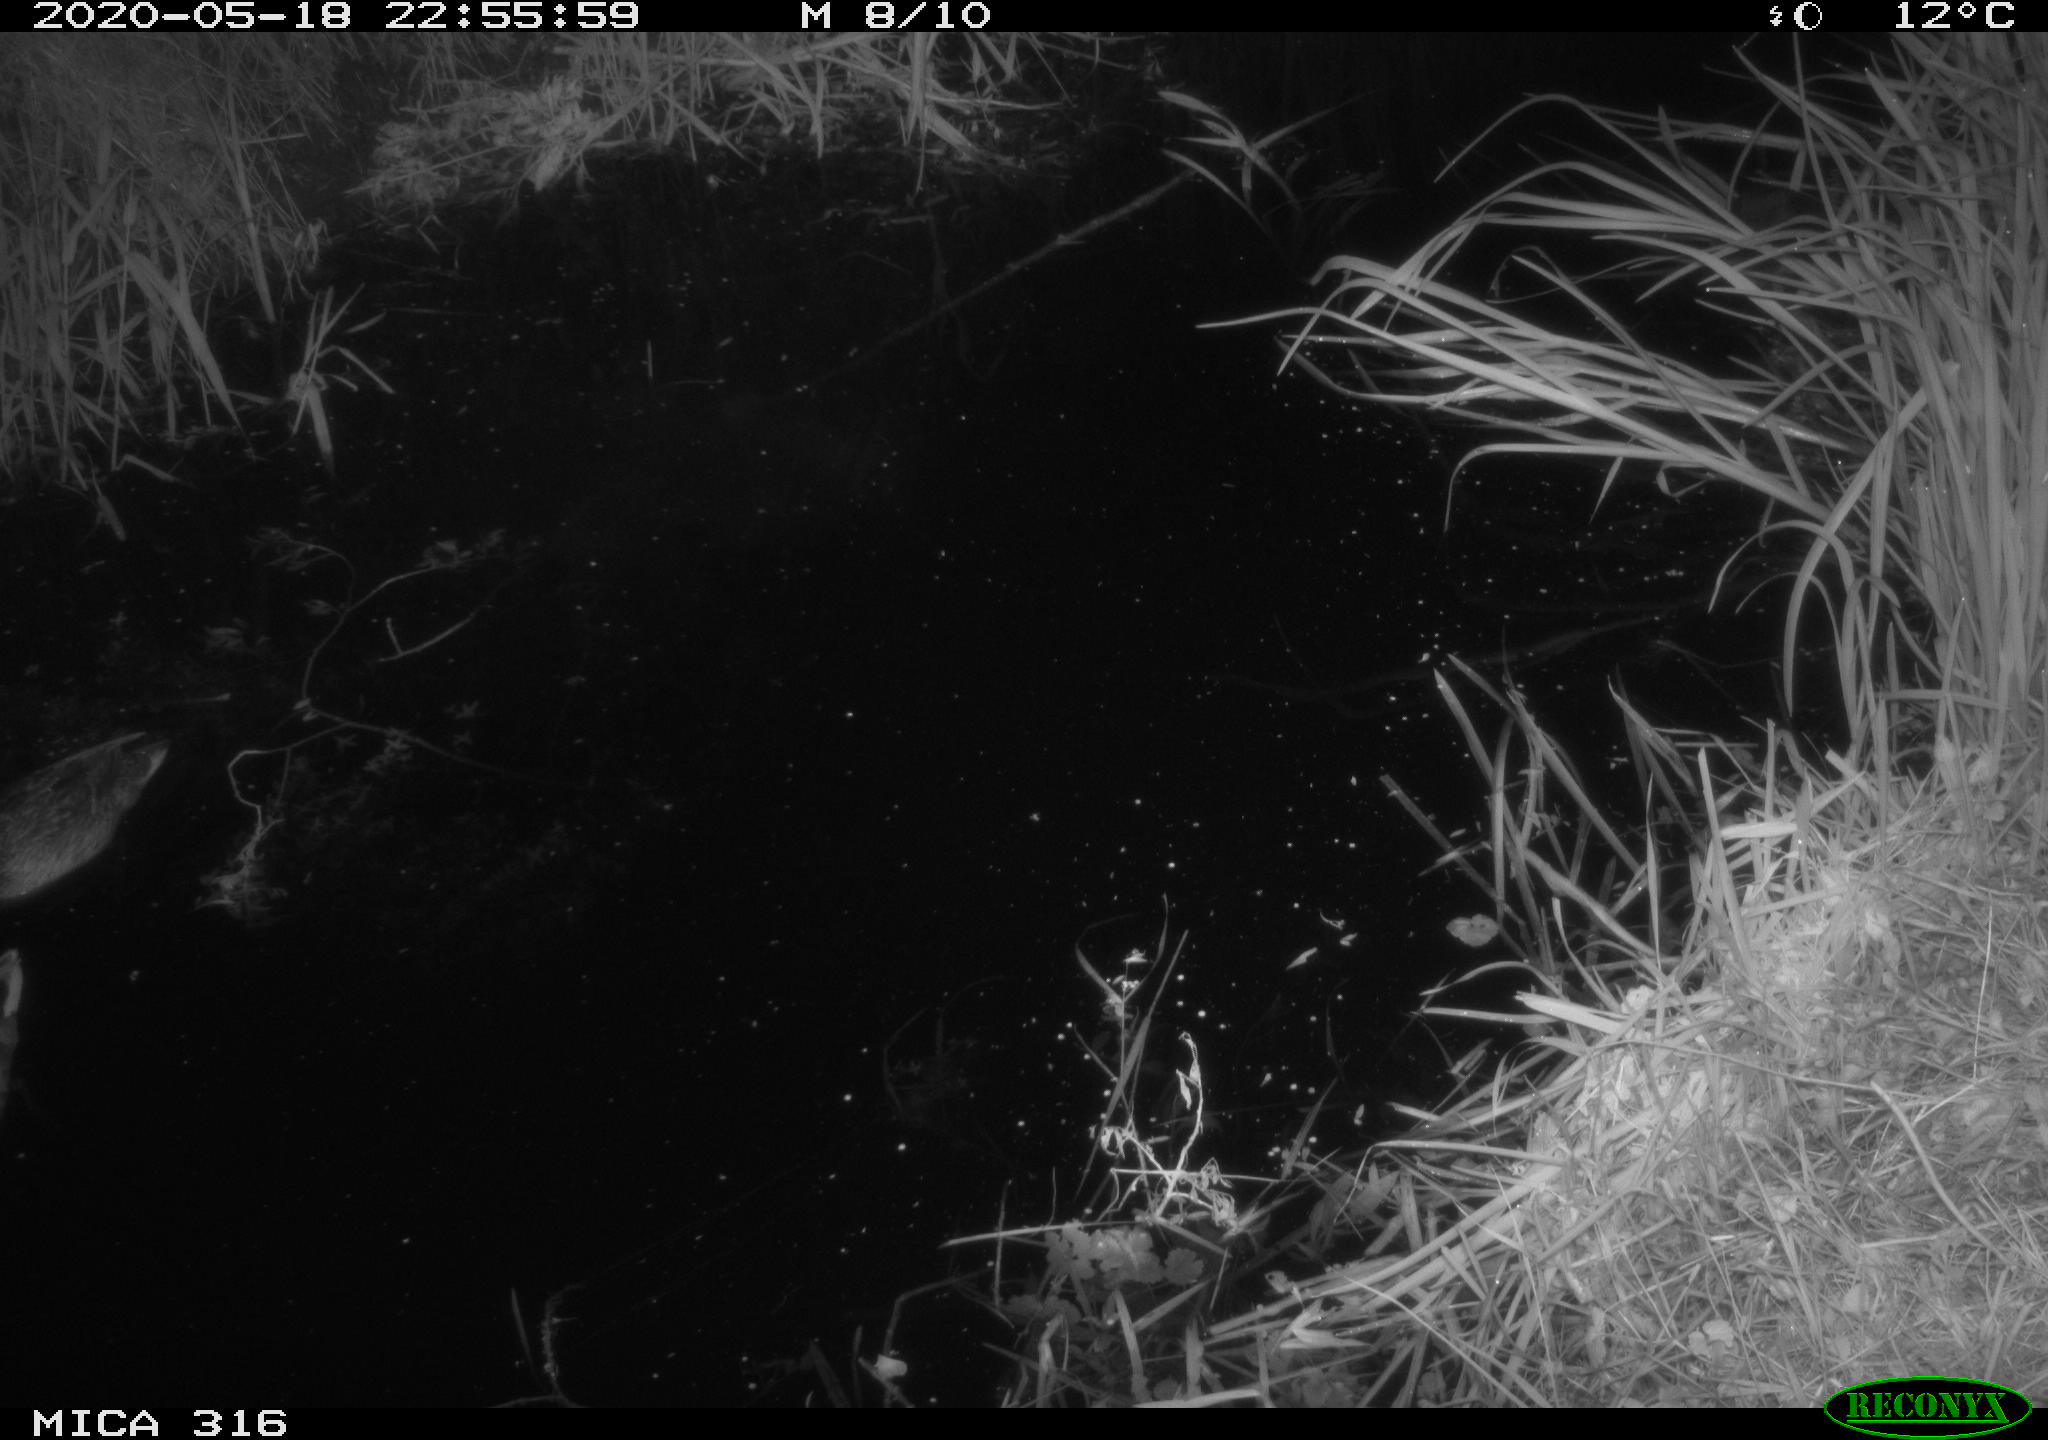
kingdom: Animalia
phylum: Chordata
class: Aves
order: Anseriformes
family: Anatidae
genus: Anas
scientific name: Anas platyrhynchos
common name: Mallard
